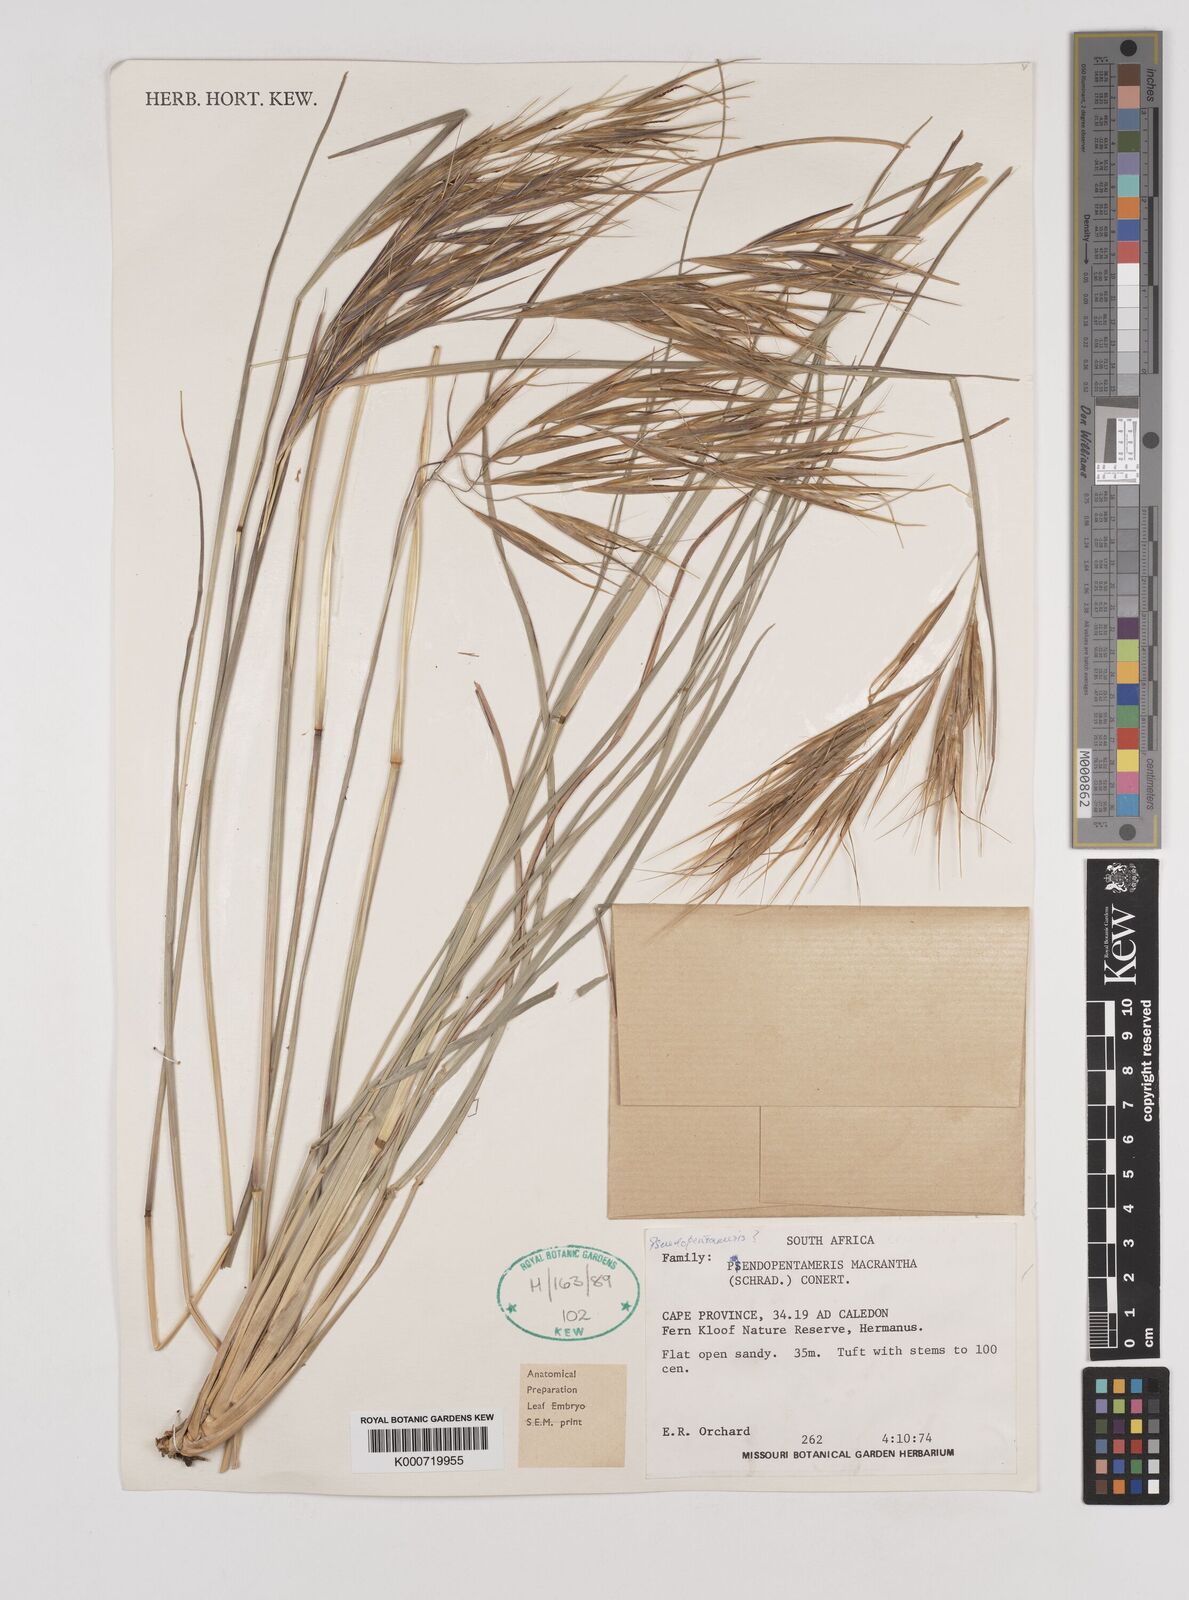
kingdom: Plantae
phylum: Tracheophyta
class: Liliopsida
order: Poales
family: Poaceae
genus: Pseudopentameris
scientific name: Pseudopentameris macrantha
